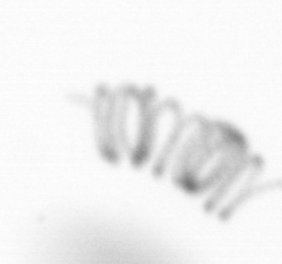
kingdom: Chromista
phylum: Ochrophyta
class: Bacillariophyceae
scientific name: Bacillariophyceae
